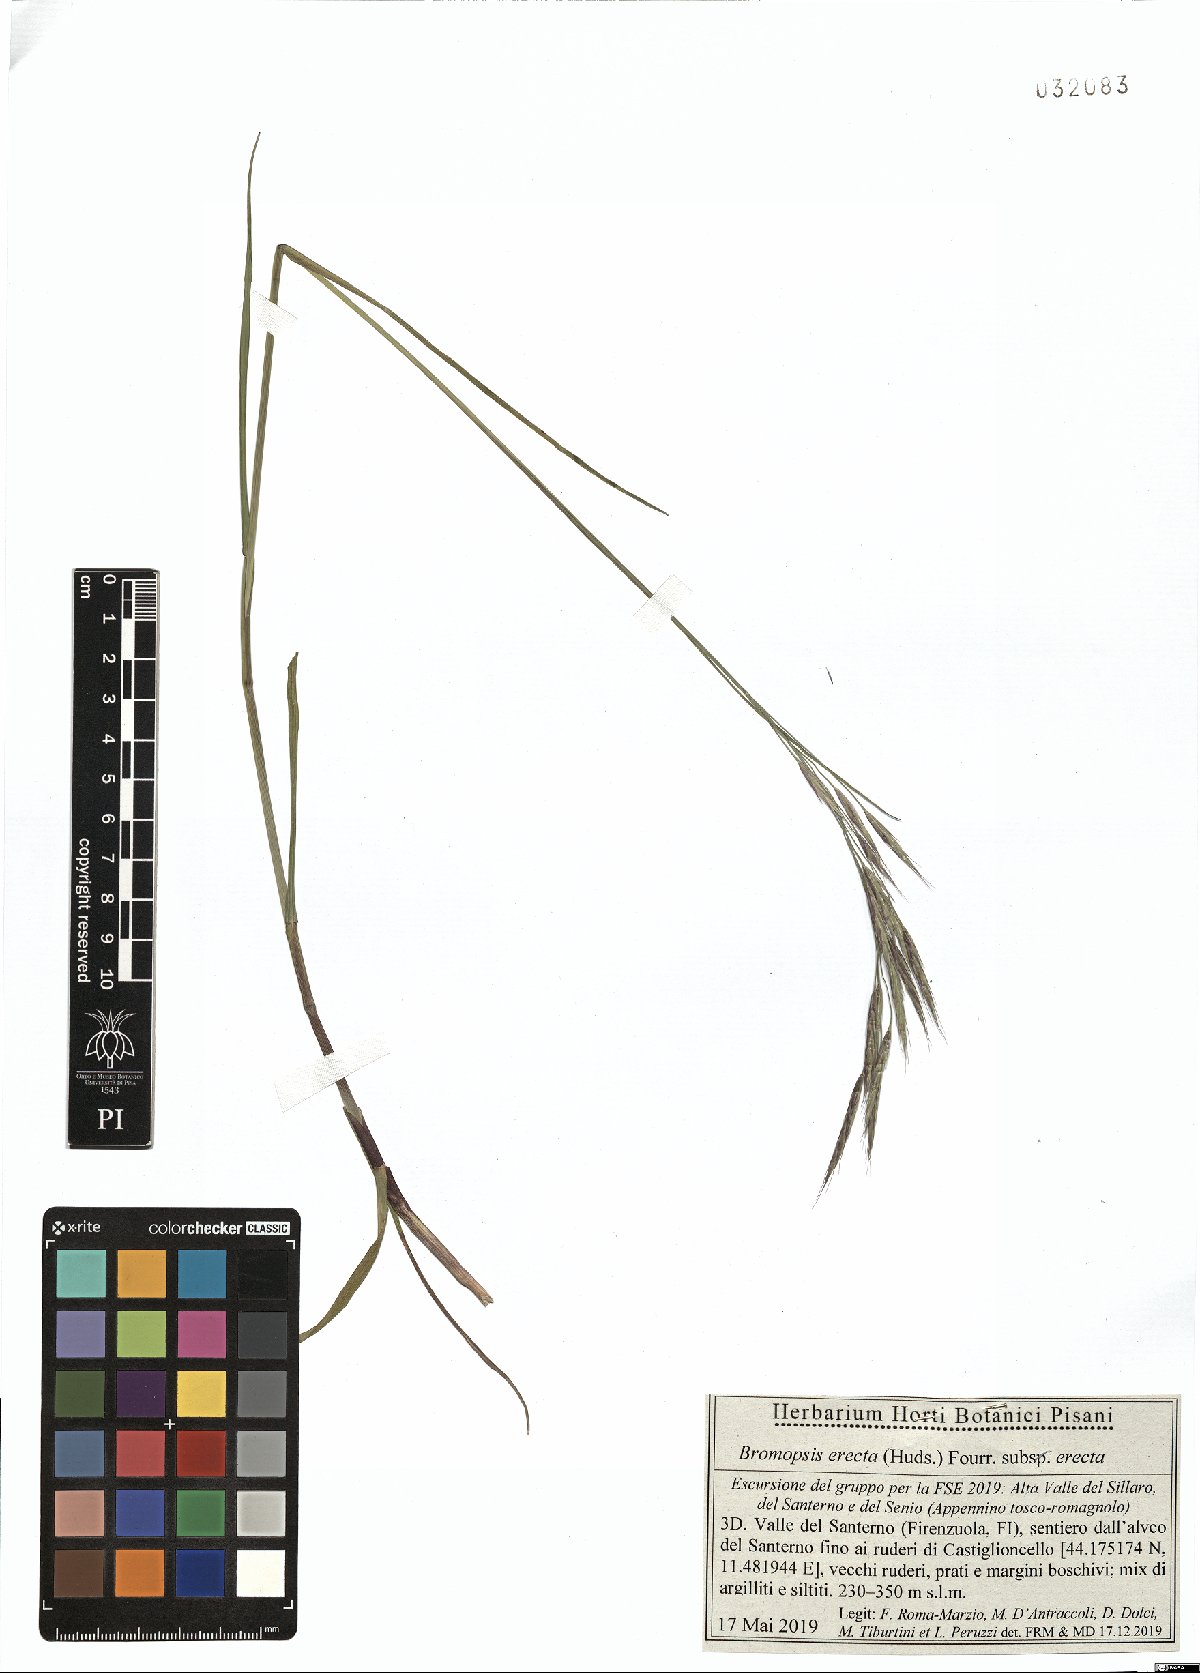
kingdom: Plantae
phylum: Tracheophyta
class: Liliopsida
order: Poales
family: Poaceae
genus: Bromus
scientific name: Bromus erectus
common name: Erect brome
